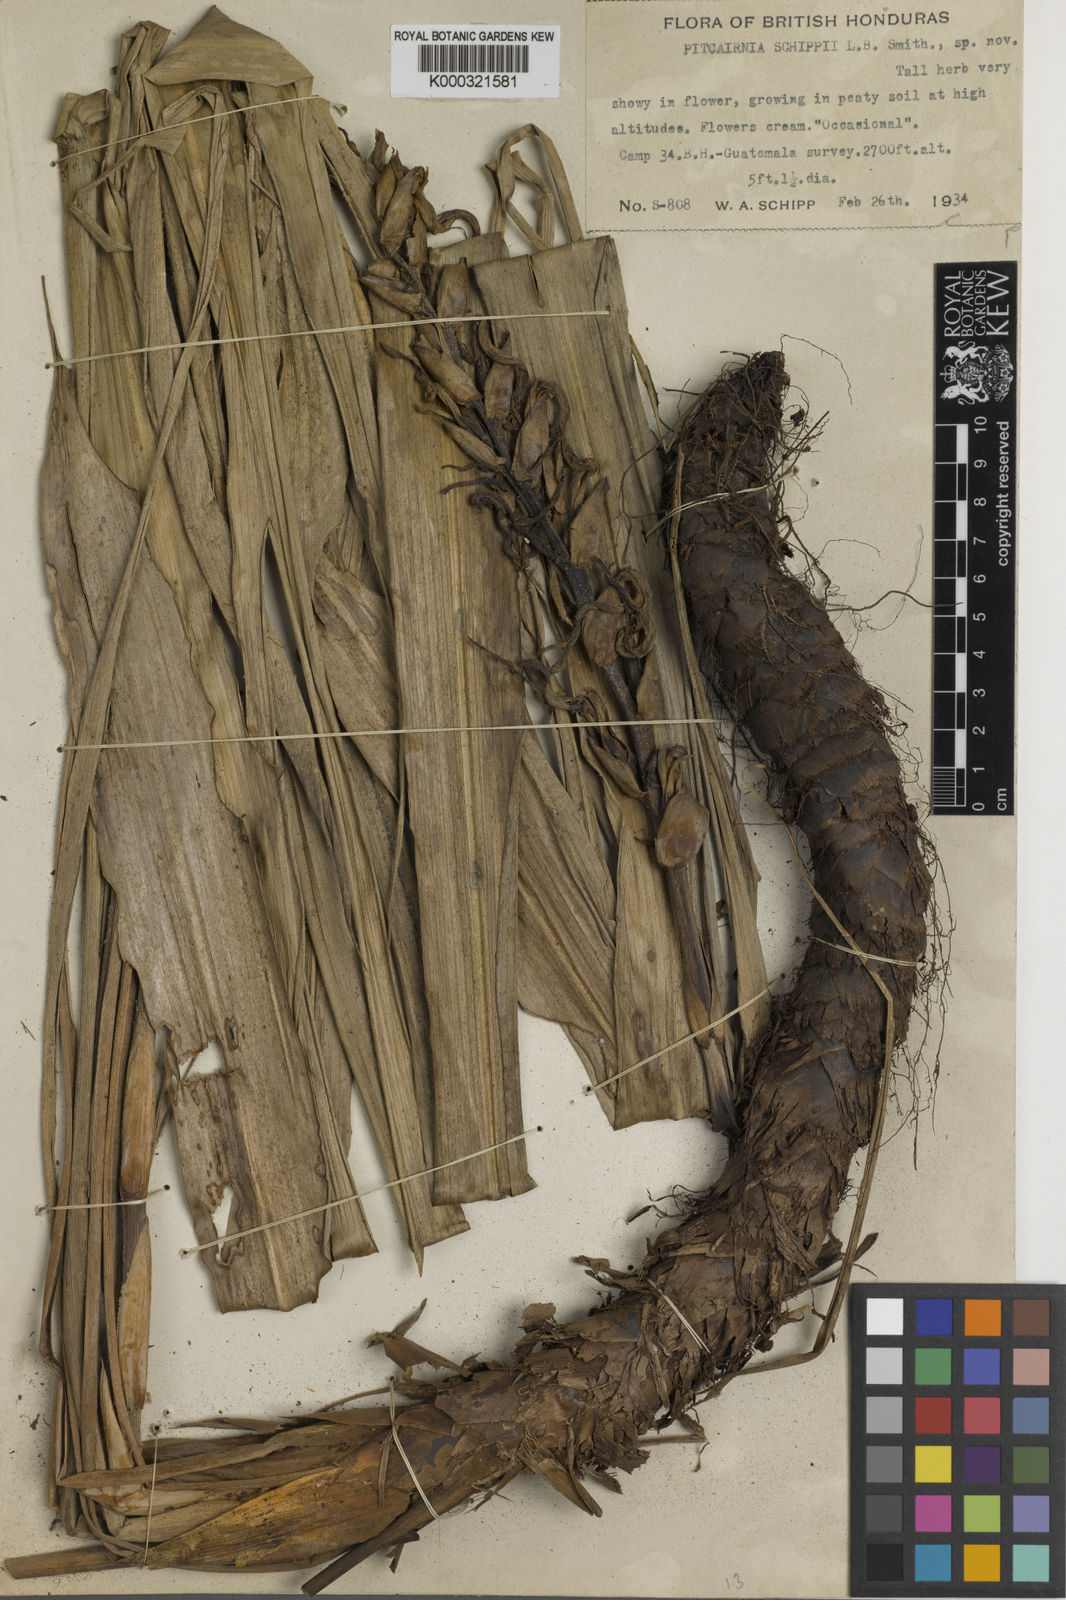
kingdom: Plantae
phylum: Tracheophyta
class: Liliopsida
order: Poales
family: Bromeliaceae
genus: Pitcairnia
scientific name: Pitcairnia recurvata
